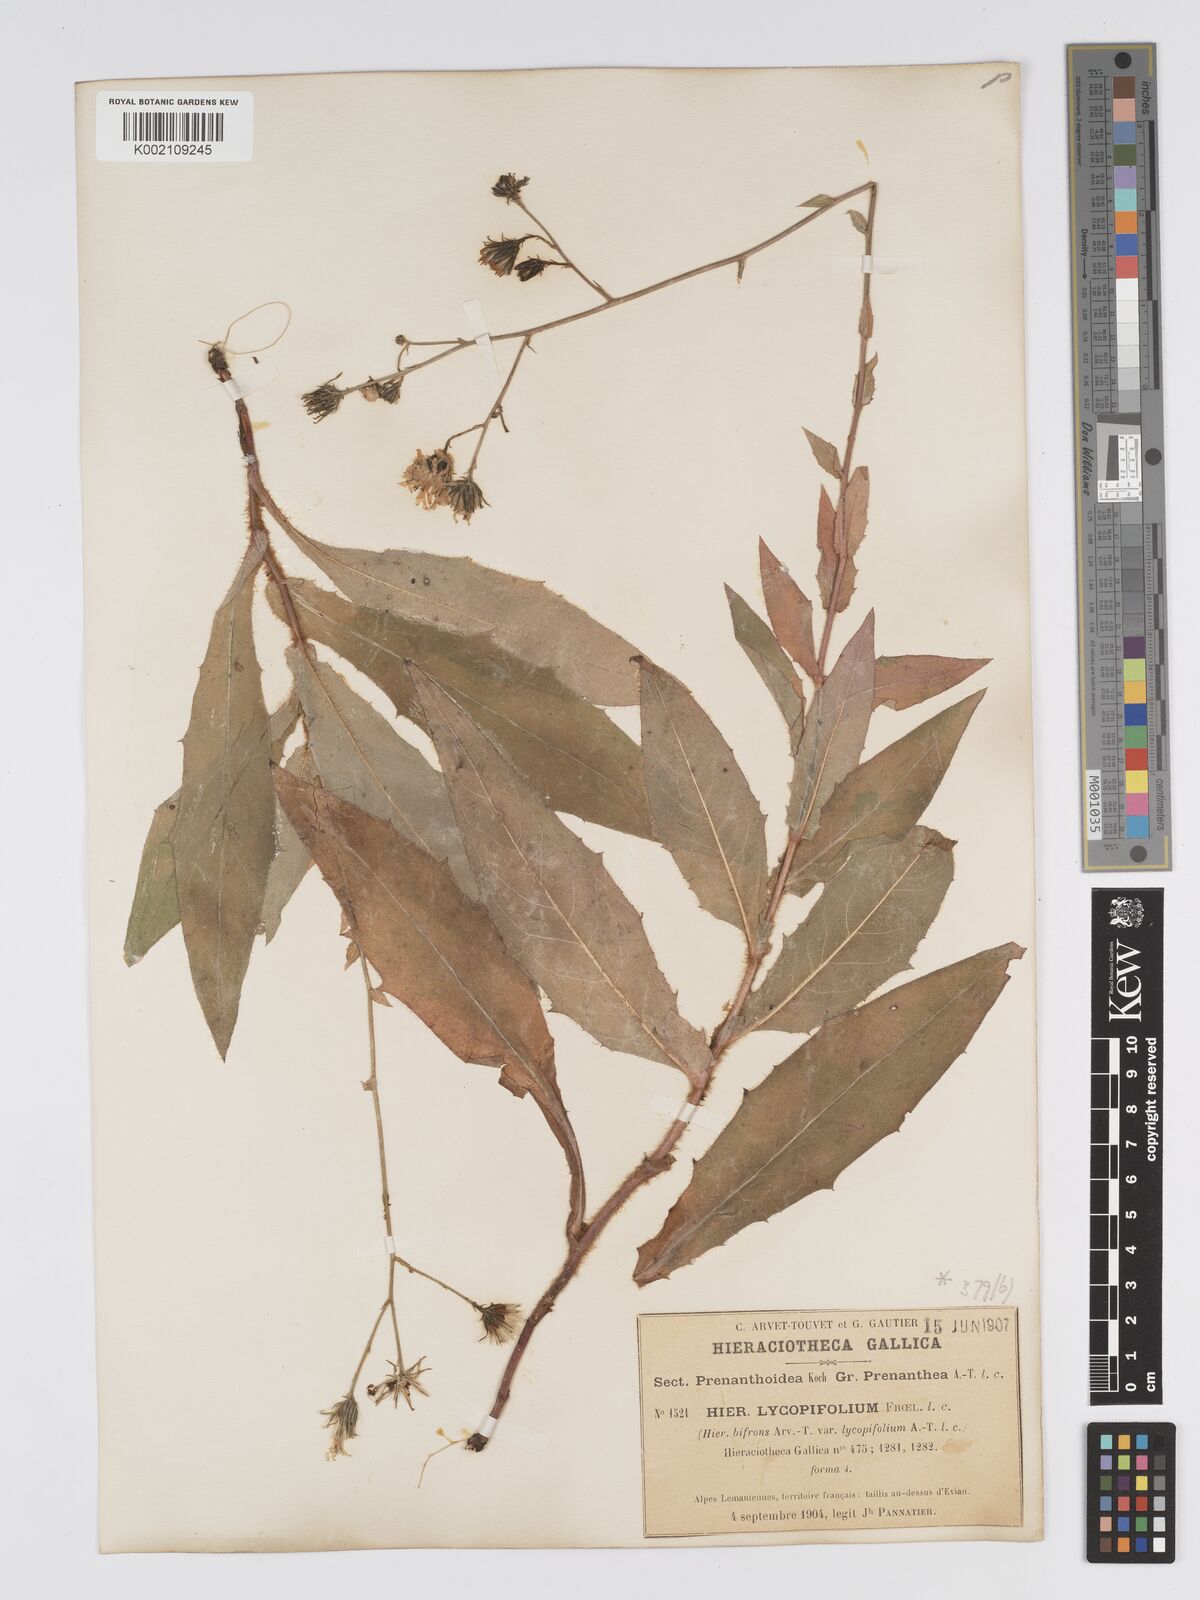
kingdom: Plantae
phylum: Tracheophyta
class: Magnoliopsida
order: Asterales
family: Asteraceae
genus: Hieracium
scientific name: Hieracium lycopifolium
